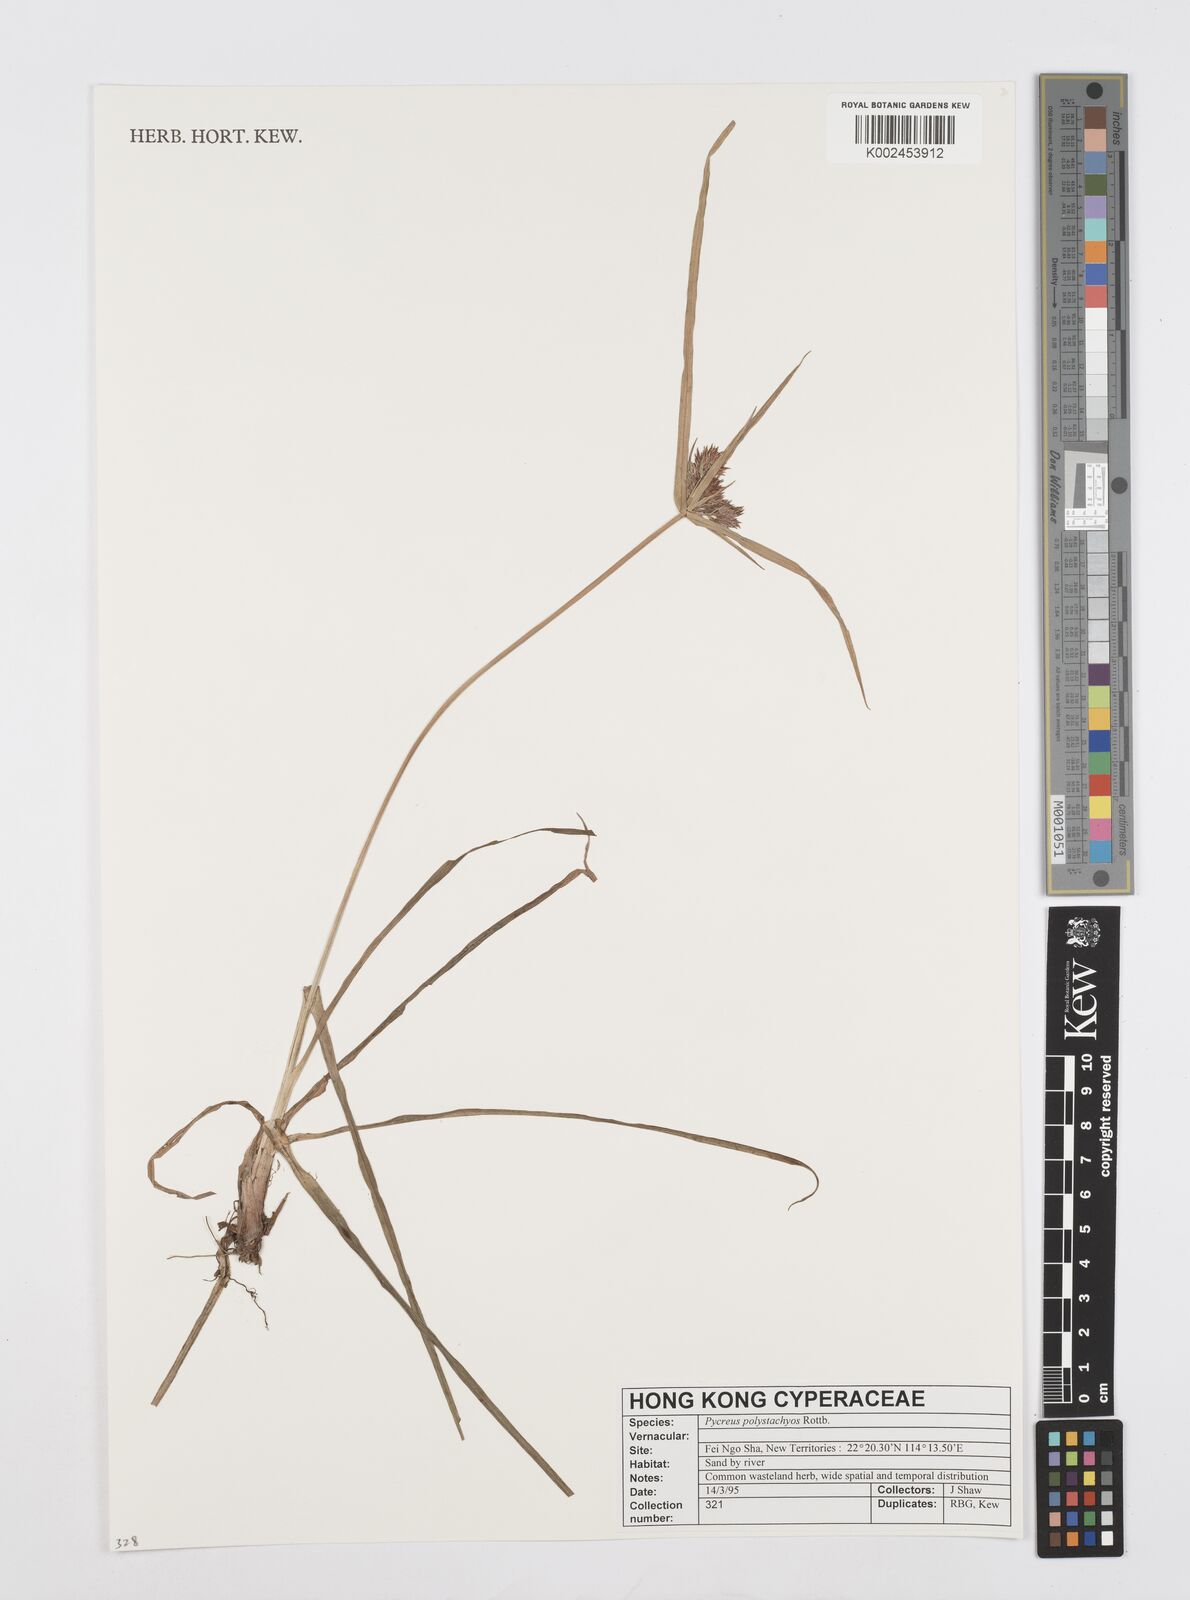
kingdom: Plantae
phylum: Tracheophyta
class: Liliopsida
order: Poales
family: Cyperaceae
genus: Cyperus
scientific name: Cyperus polystachyos
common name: Bunchy flat sedge
